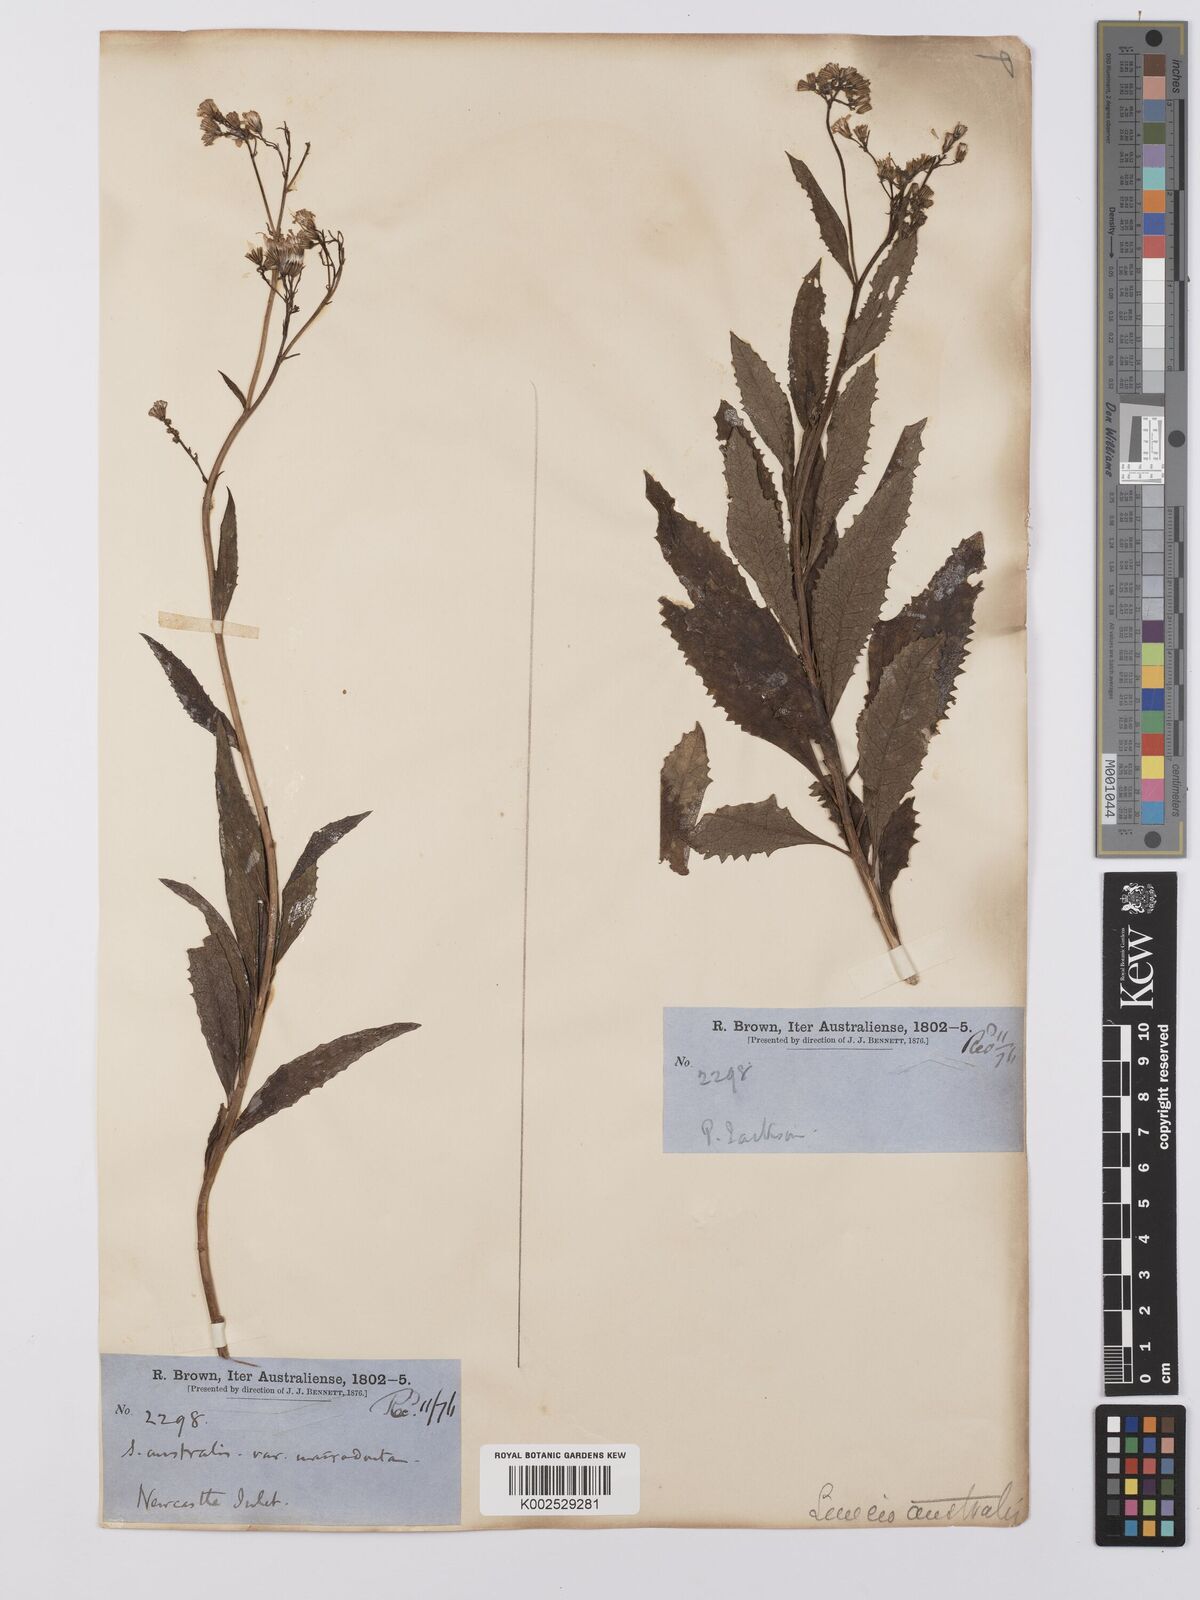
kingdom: Plantae
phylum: Tracheophyta
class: Magnoliopsida
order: Asterales
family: Asteraceae
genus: Senecio
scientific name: Senecio
